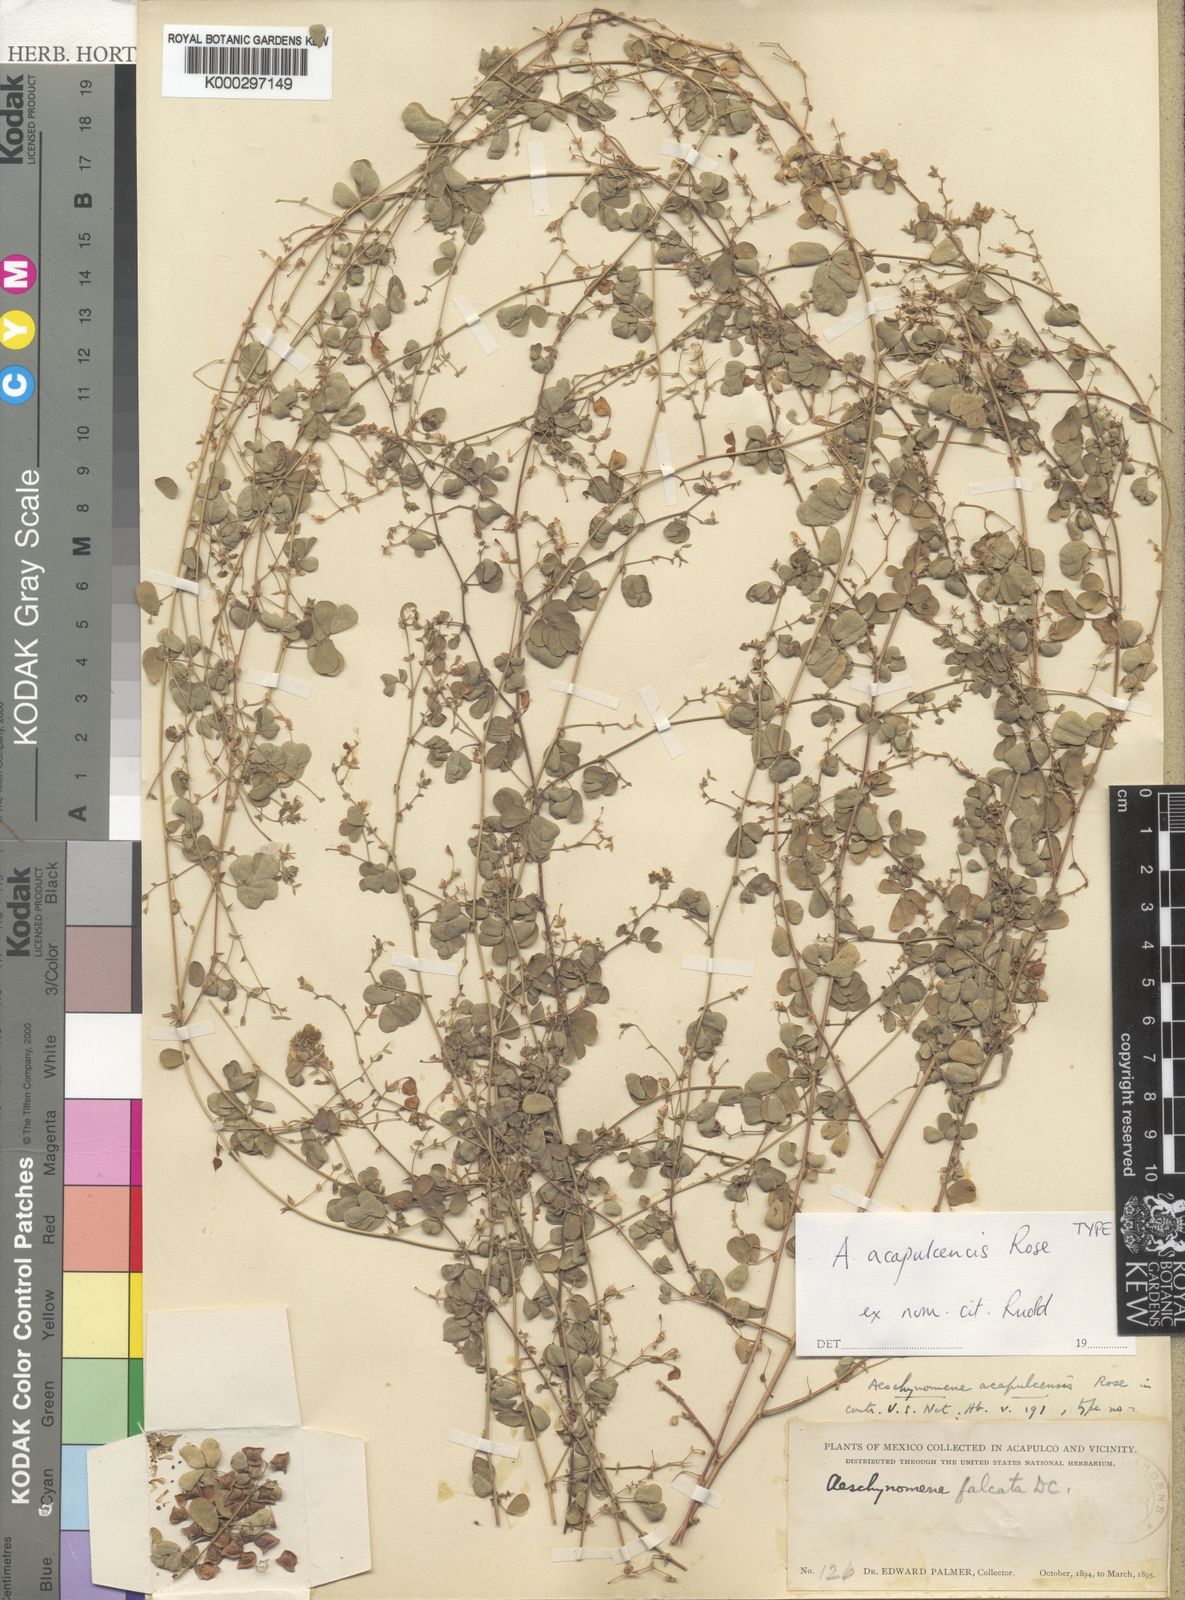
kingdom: Plantae
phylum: Tracheophyta
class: Magnoliopsida
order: Fabales
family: Fabaceae
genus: Ctenodon
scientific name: Ctenodon palmeri
